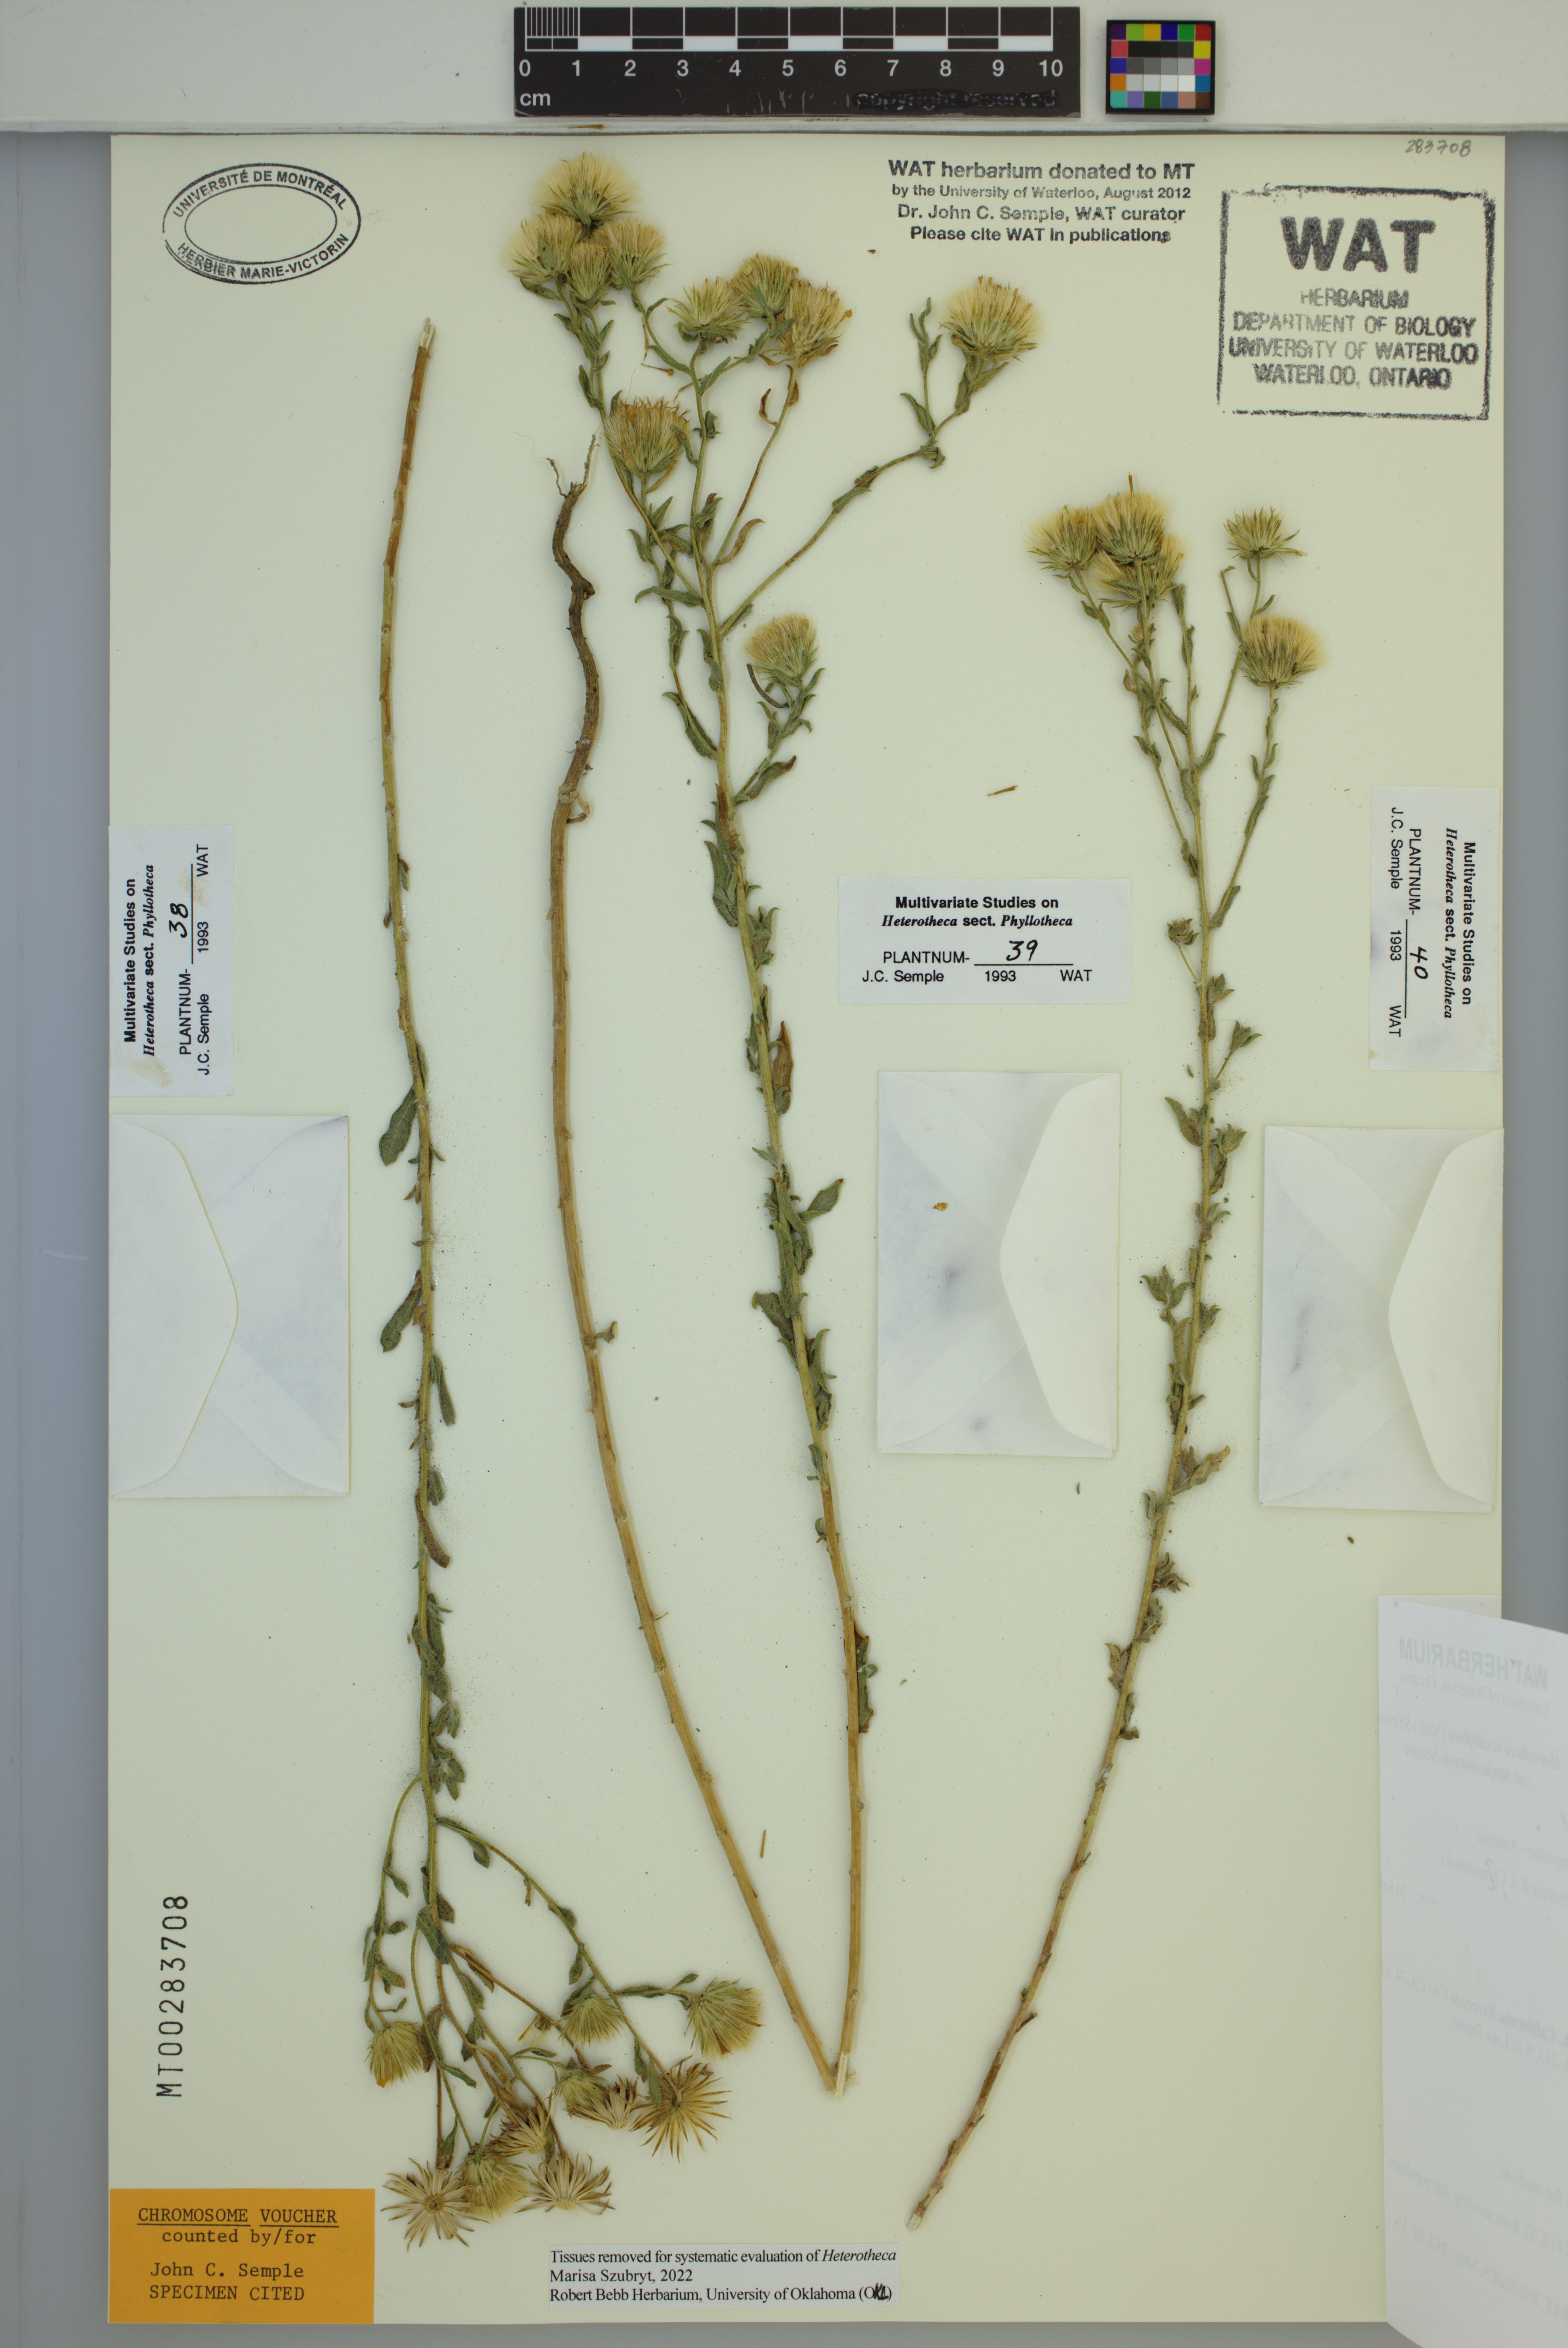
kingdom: Plantae
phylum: Tracheophyta
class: Magnoliopsida
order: Asterales
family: Asteraceae
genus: Heterotheca
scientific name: Heterotheca sessiliflora
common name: Sessile-flower golden-aster
